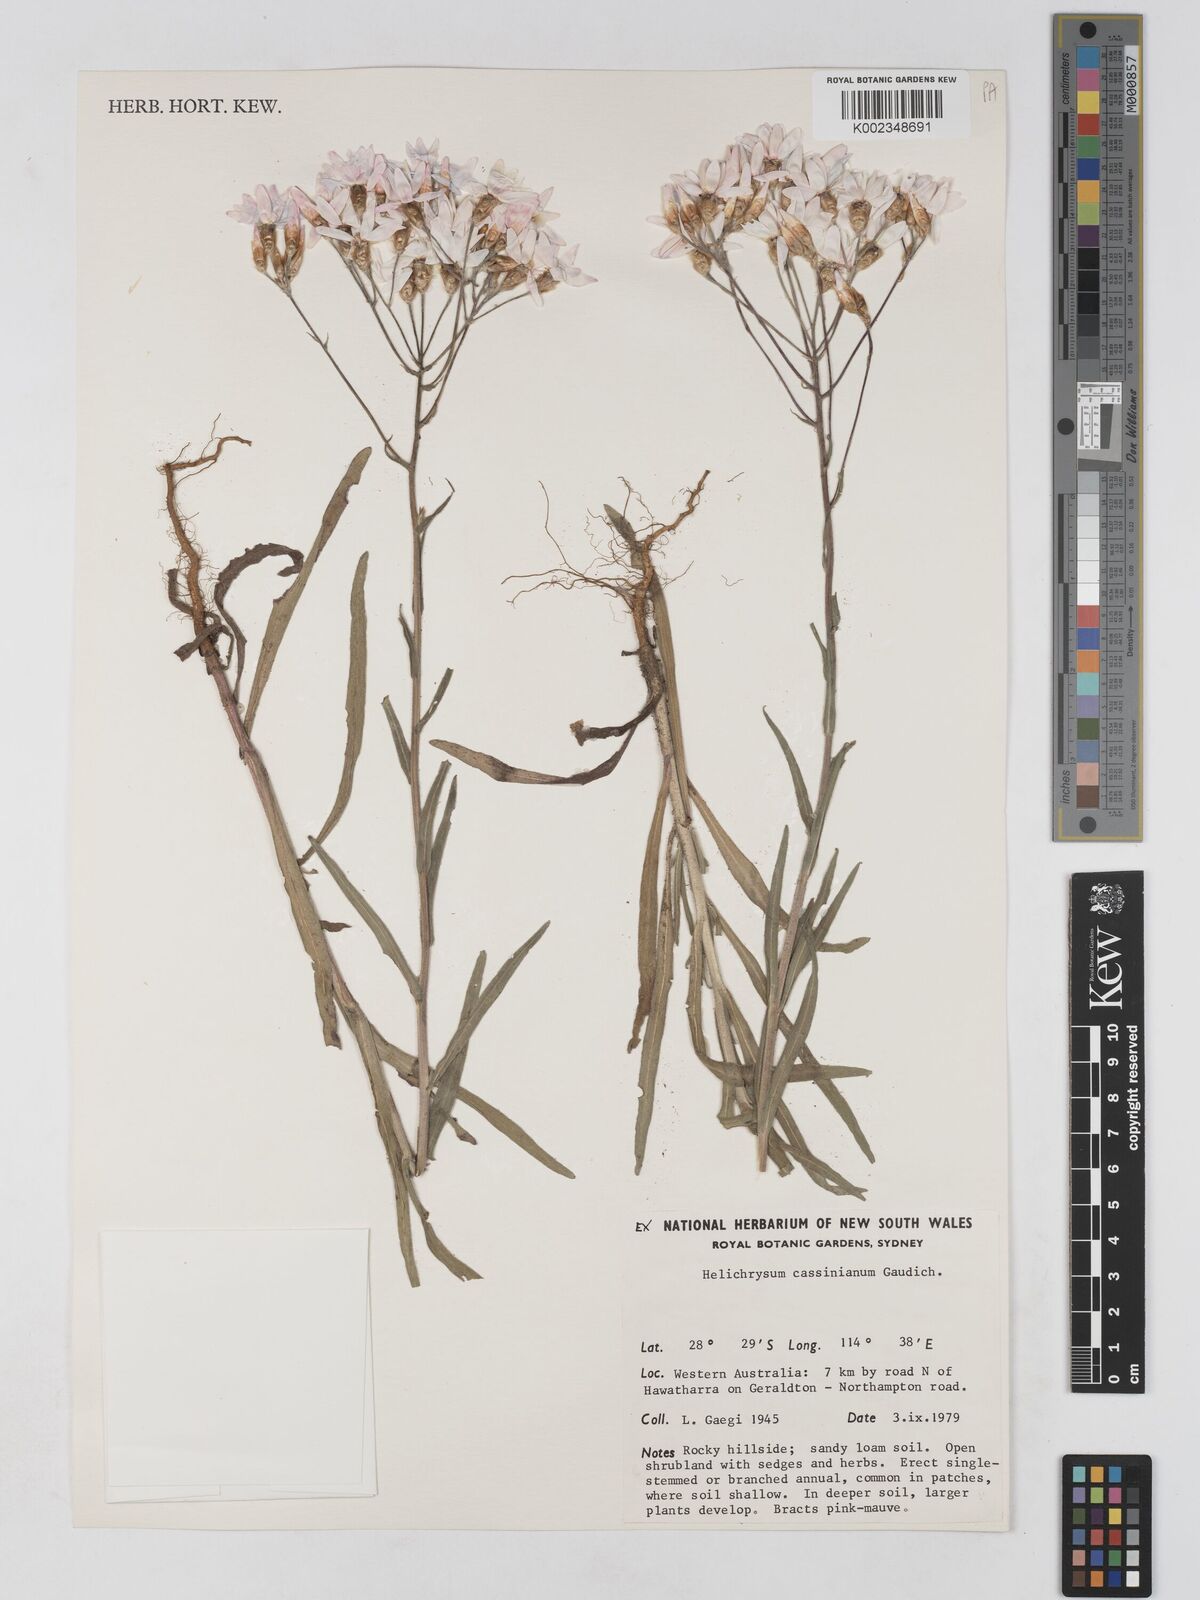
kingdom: Plantae
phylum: Tracheophyta
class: Magnoliopsida
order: Asterales
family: Asteraceae
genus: Schoenia
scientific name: Schoenia cassiniana
